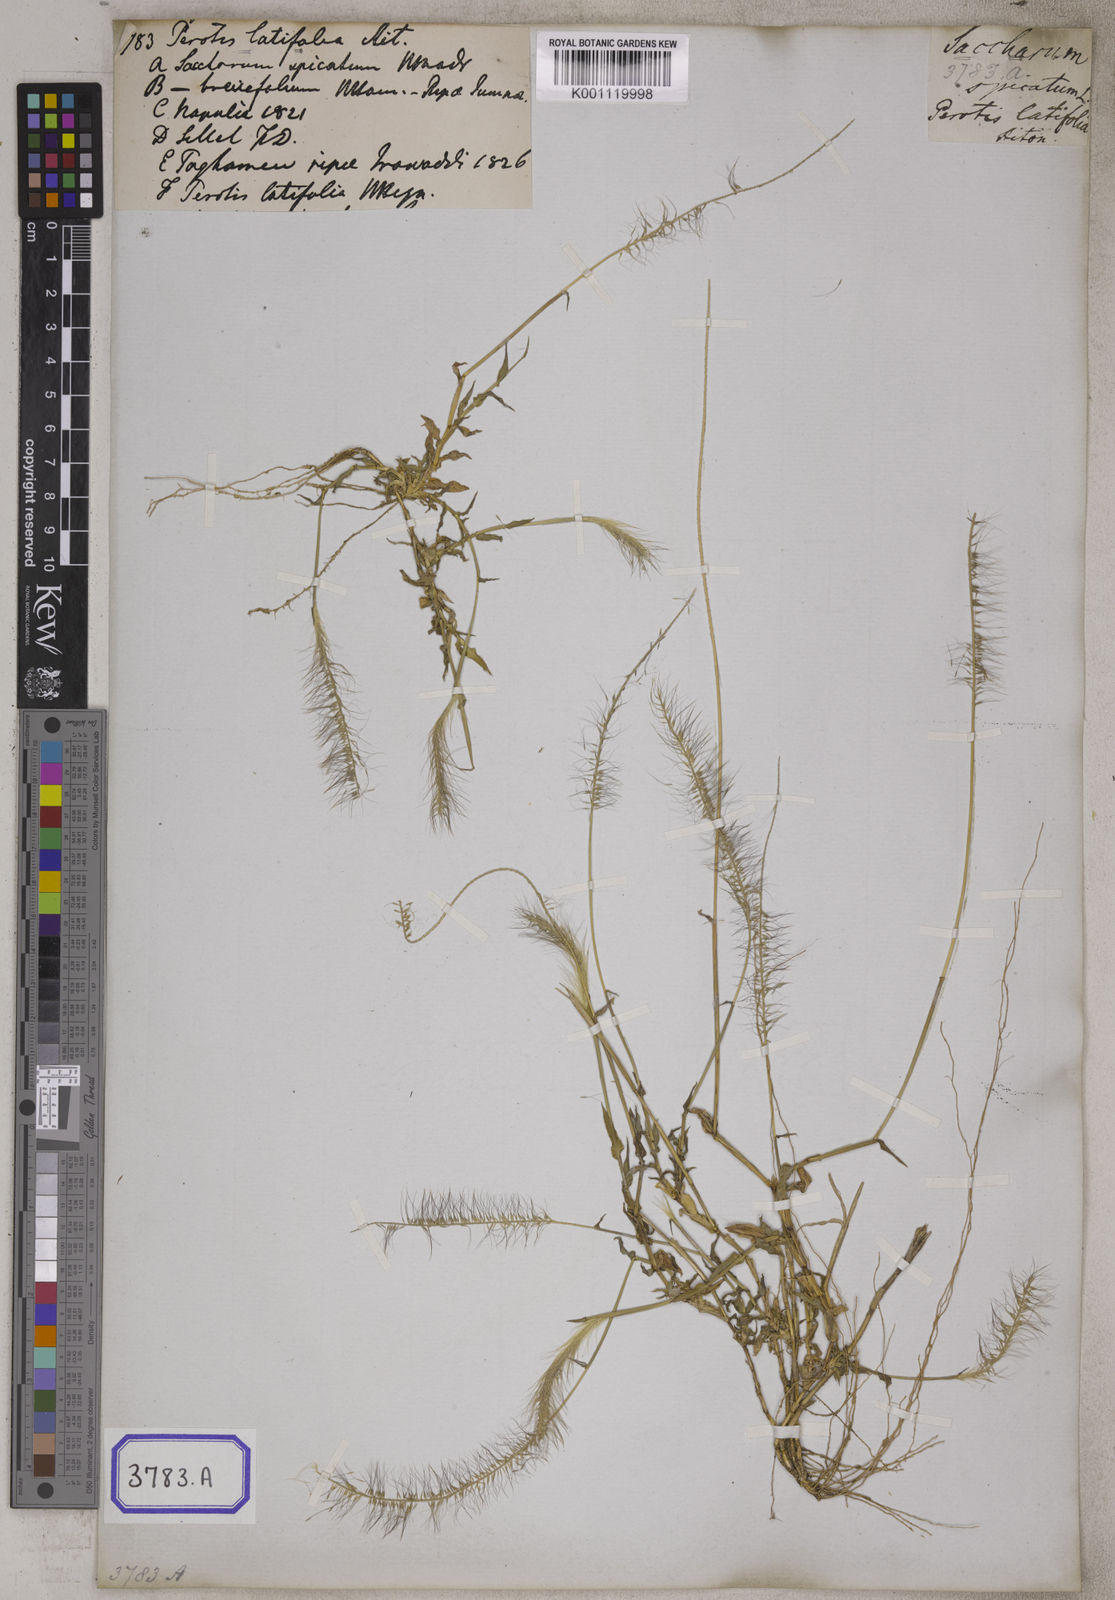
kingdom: Plantae
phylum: Tracheophyta
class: Liliopsida
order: Poales
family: Poaceae
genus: Perotis
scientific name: Perotis indica
